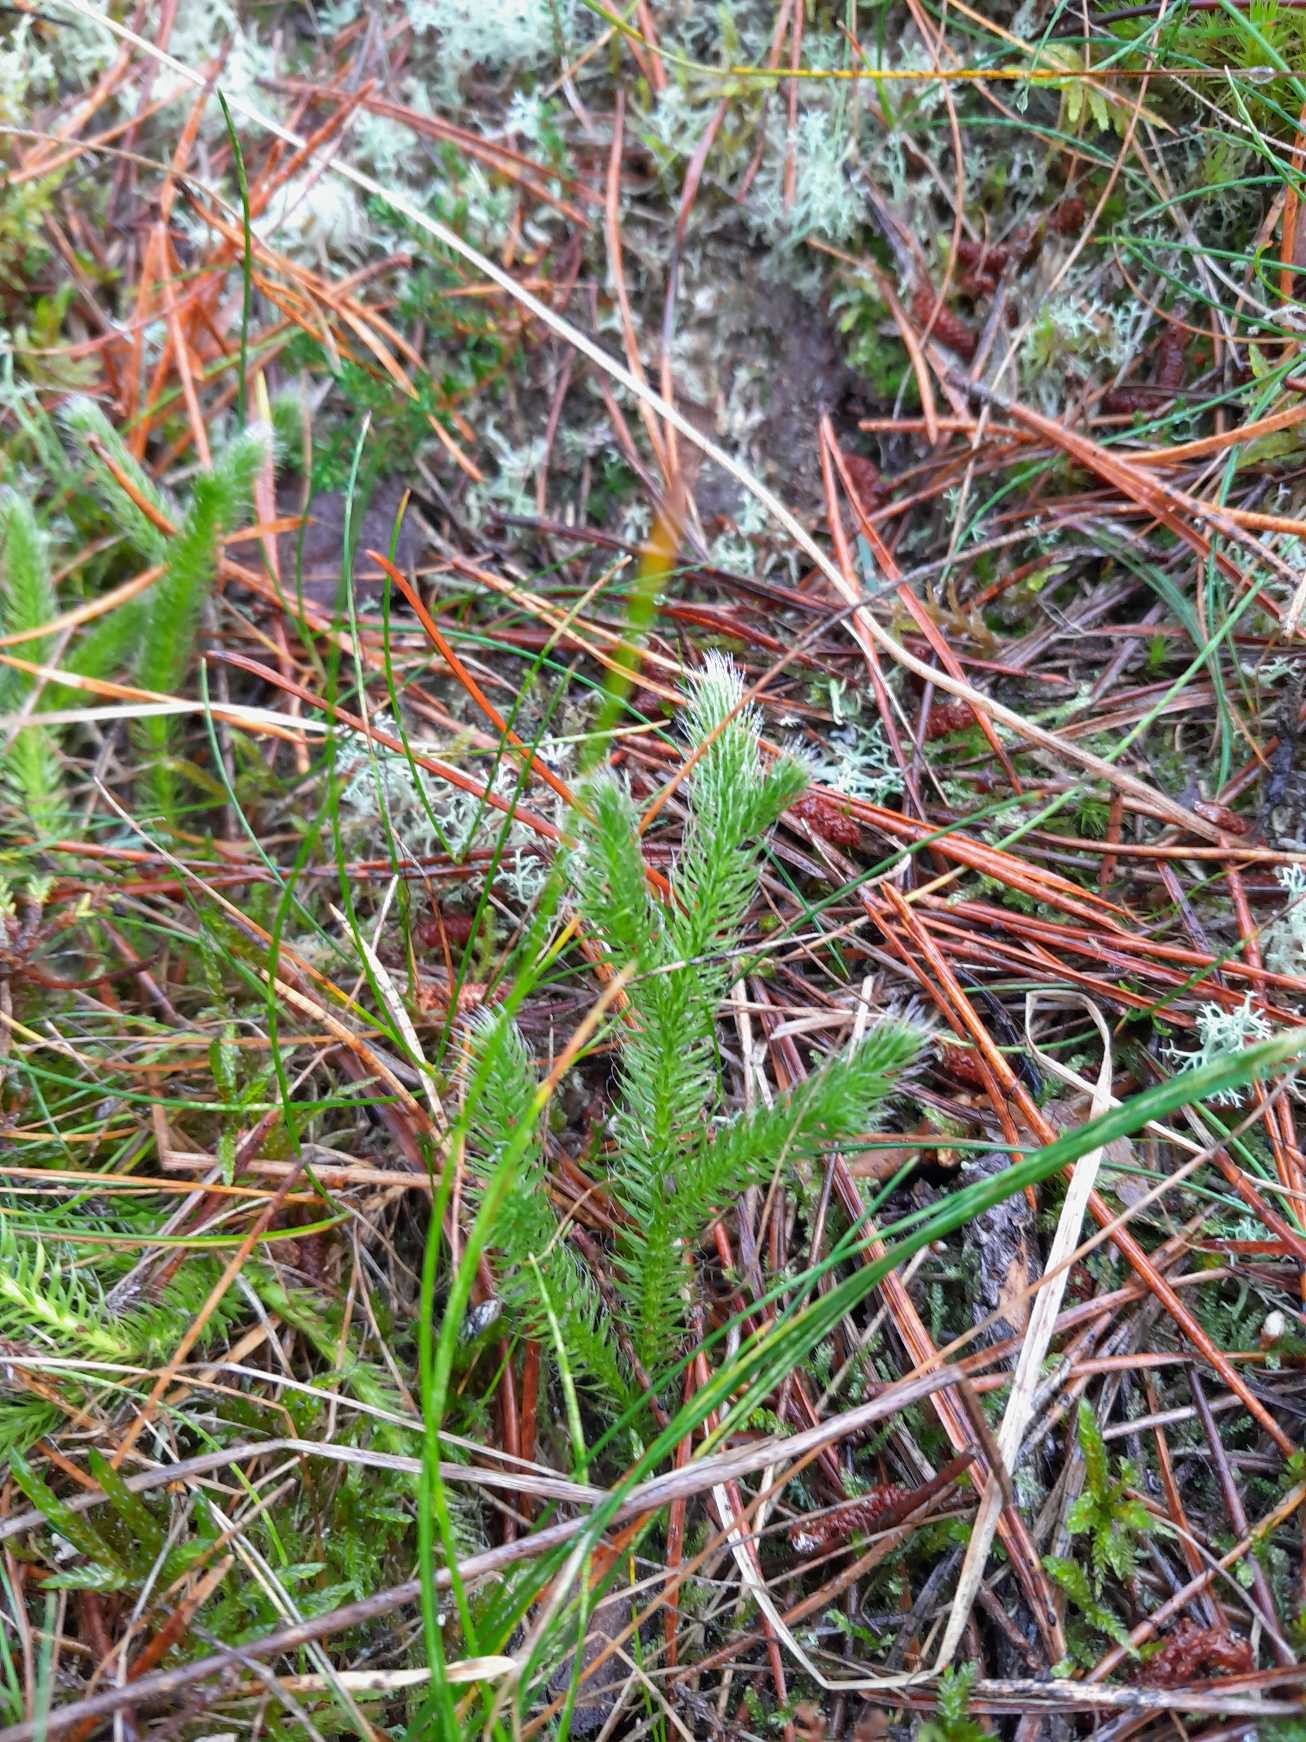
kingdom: Plantae
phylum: Tracheophyta
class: Lycopodiopsida
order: Lycopodiales
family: Lycopodiaceae
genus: Lycopodium
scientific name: Lycopodium clavatum
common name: Almindelig ulvefod
